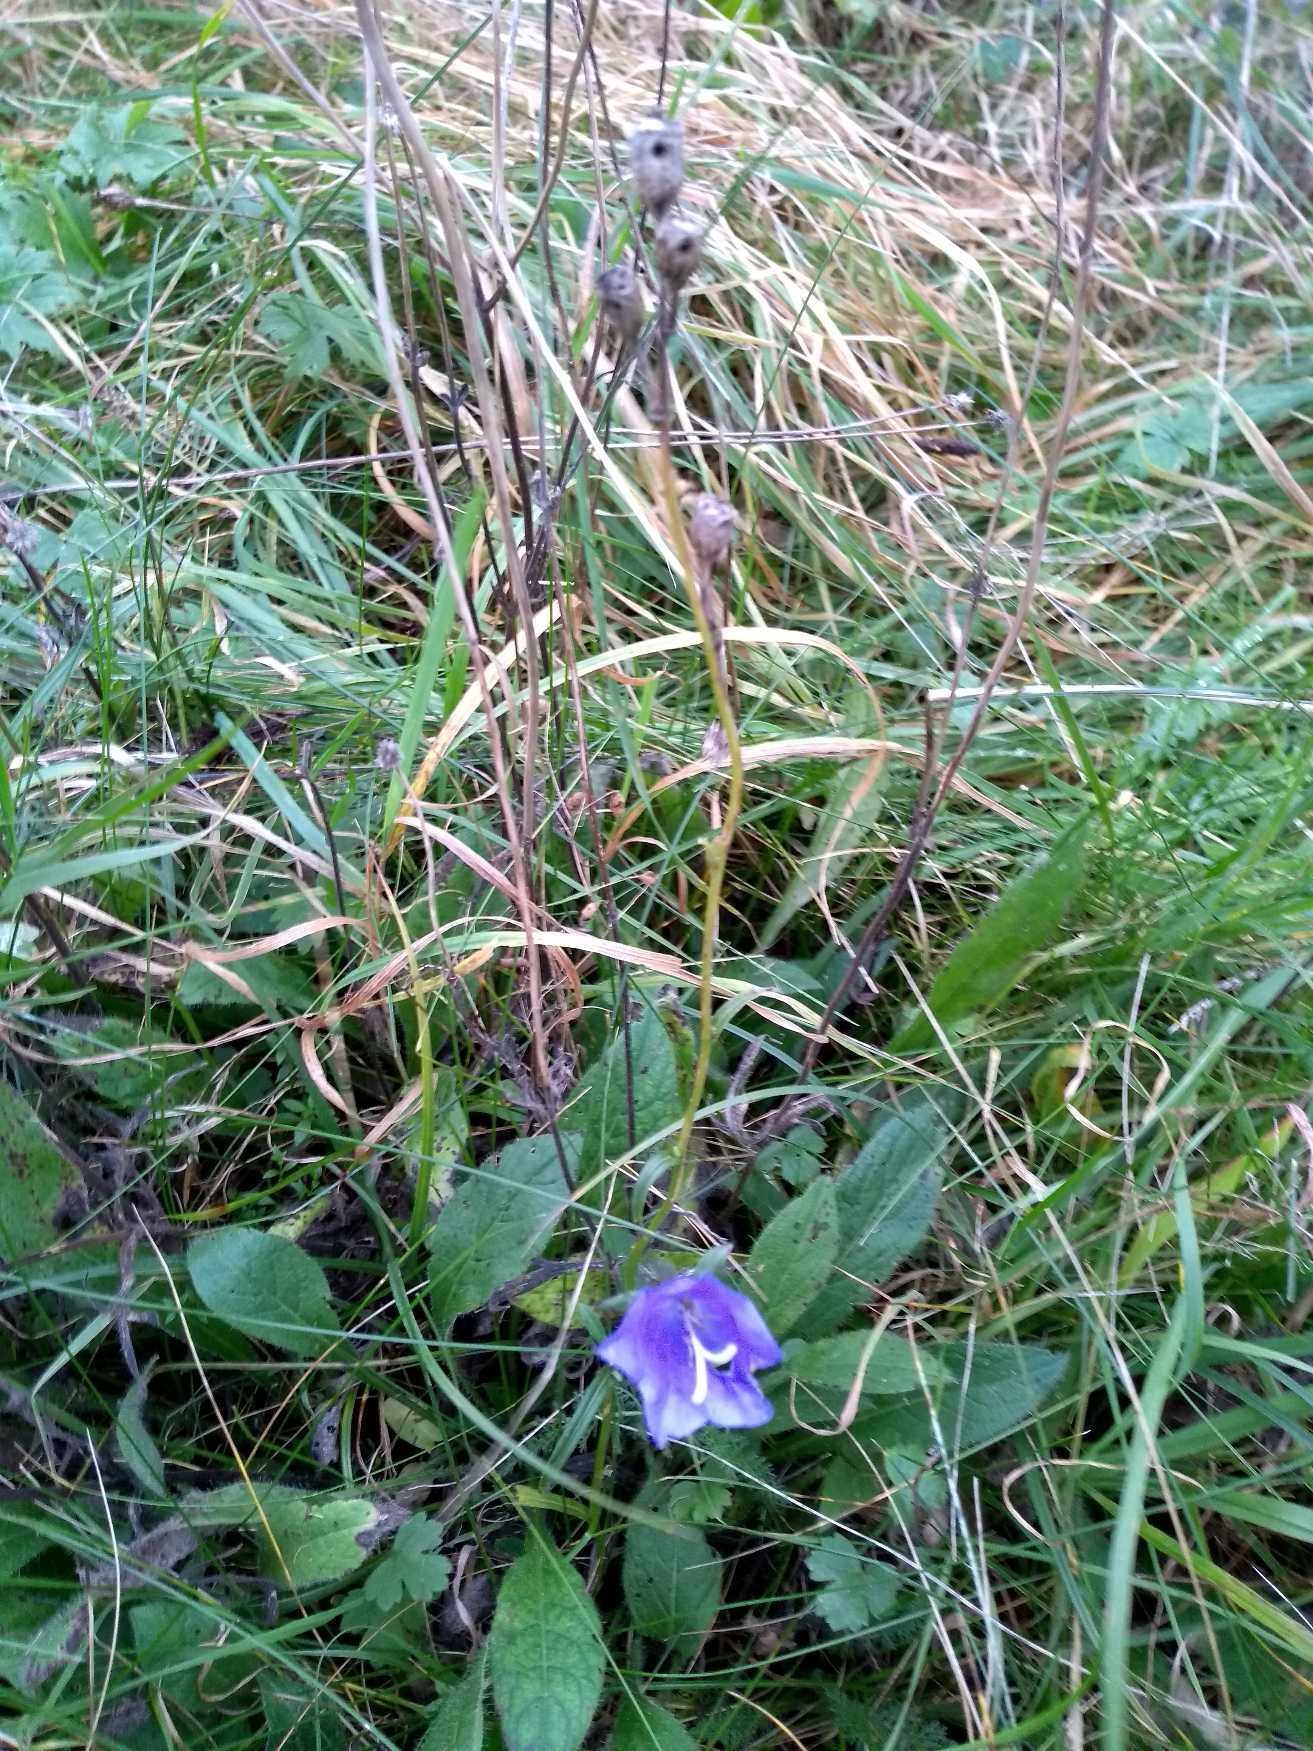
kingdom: Plantae
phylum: Tracheophyta
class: Magnoliopsida
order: Asterales
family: Campanulaceae
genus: Campanula
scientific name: Campanula persicifolia
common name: Smalbladet klokke
